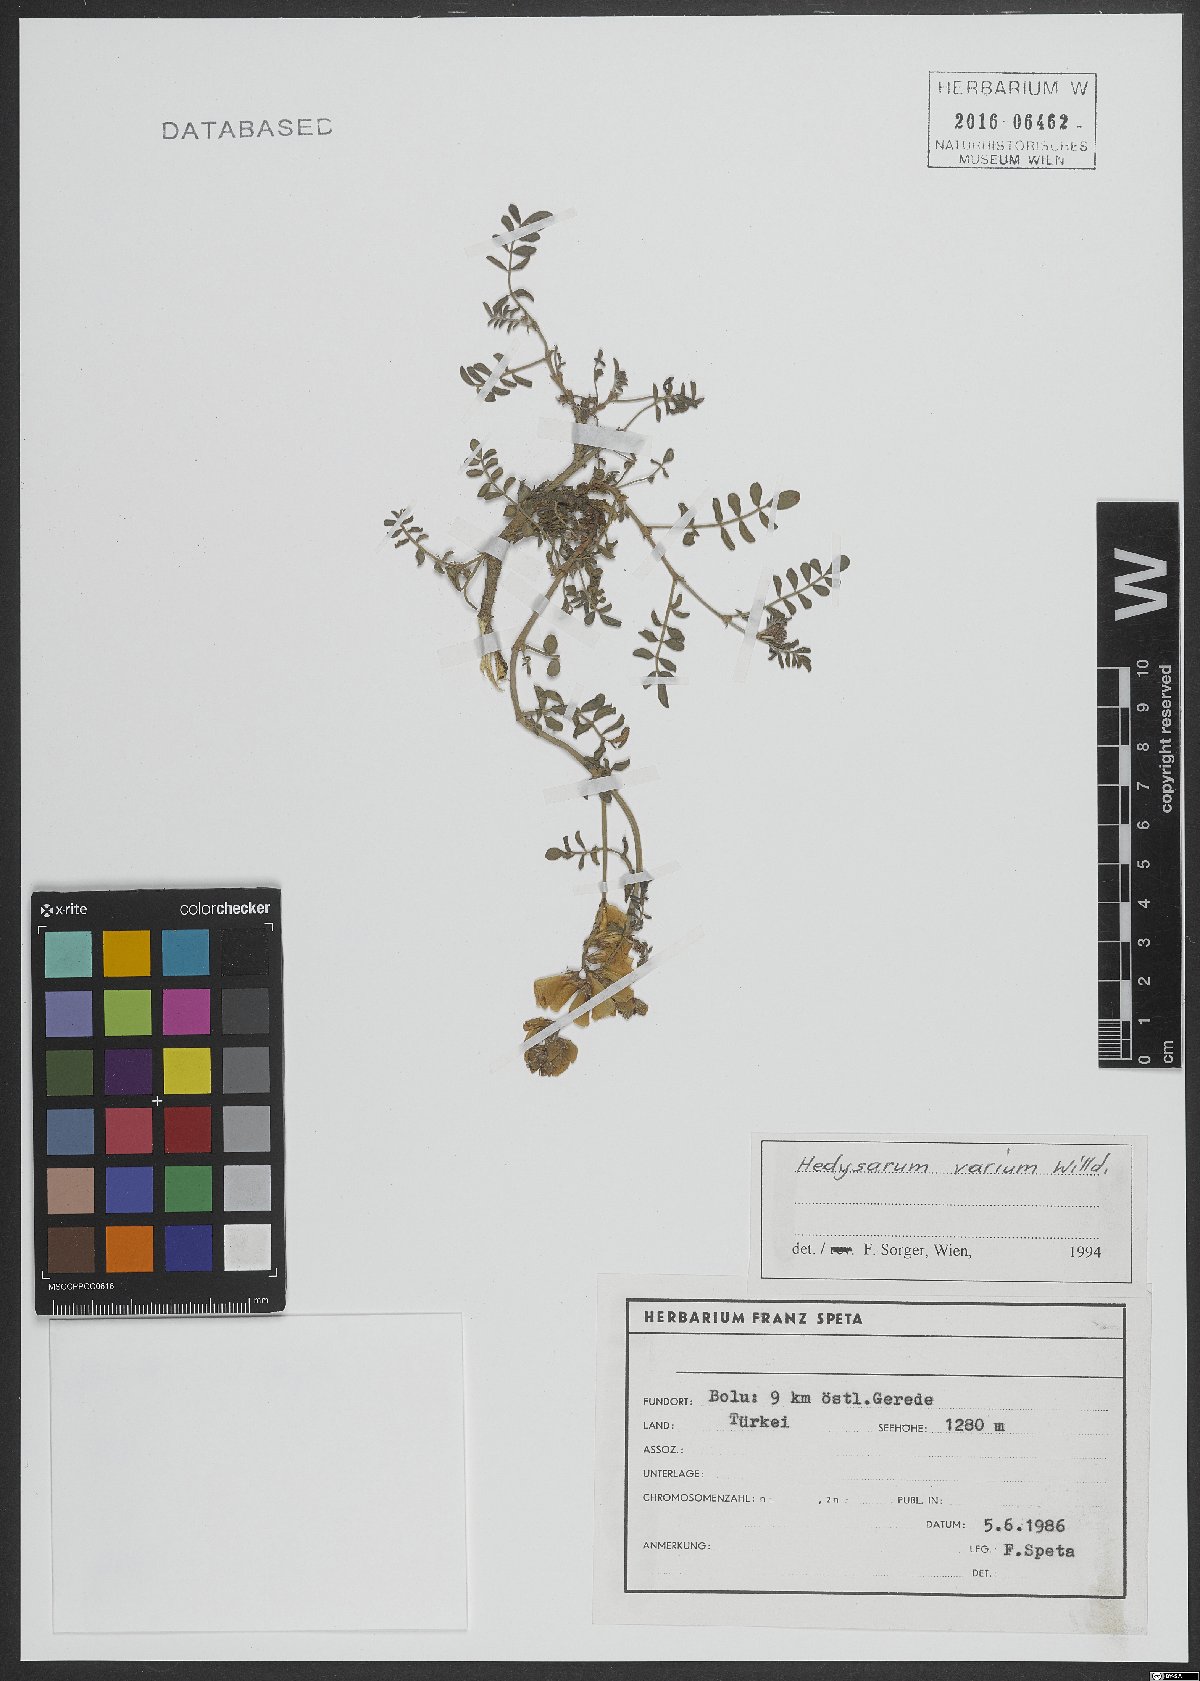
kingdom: Plantae
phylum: Tracheophyta
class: Magnoliopsida
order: Fabales
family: Fabaceae
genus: Hedysarum
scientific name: Hedysarum varium
